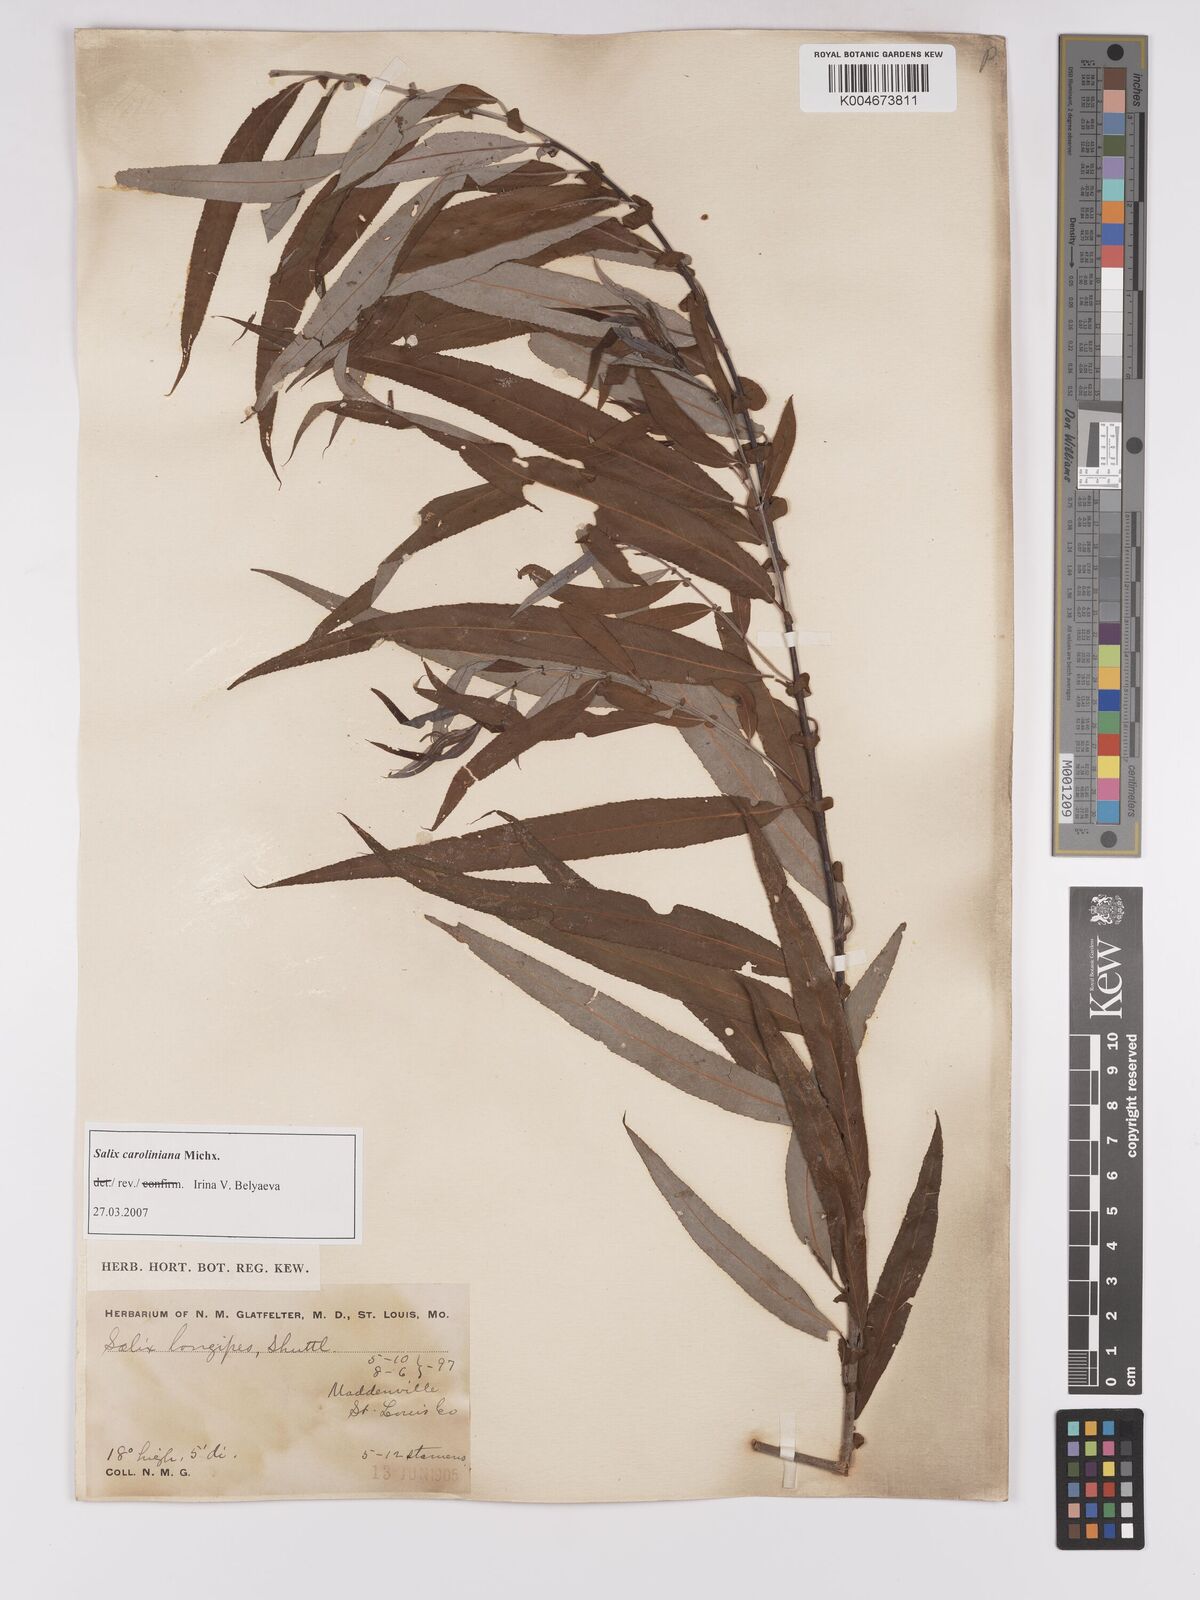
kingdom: Plantae
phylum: Tracheophyta
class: Magnoliopsida
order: Malpighiales
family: Salicaceae
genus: Salix
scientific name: Salix caroliniana
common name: Carolina willow
